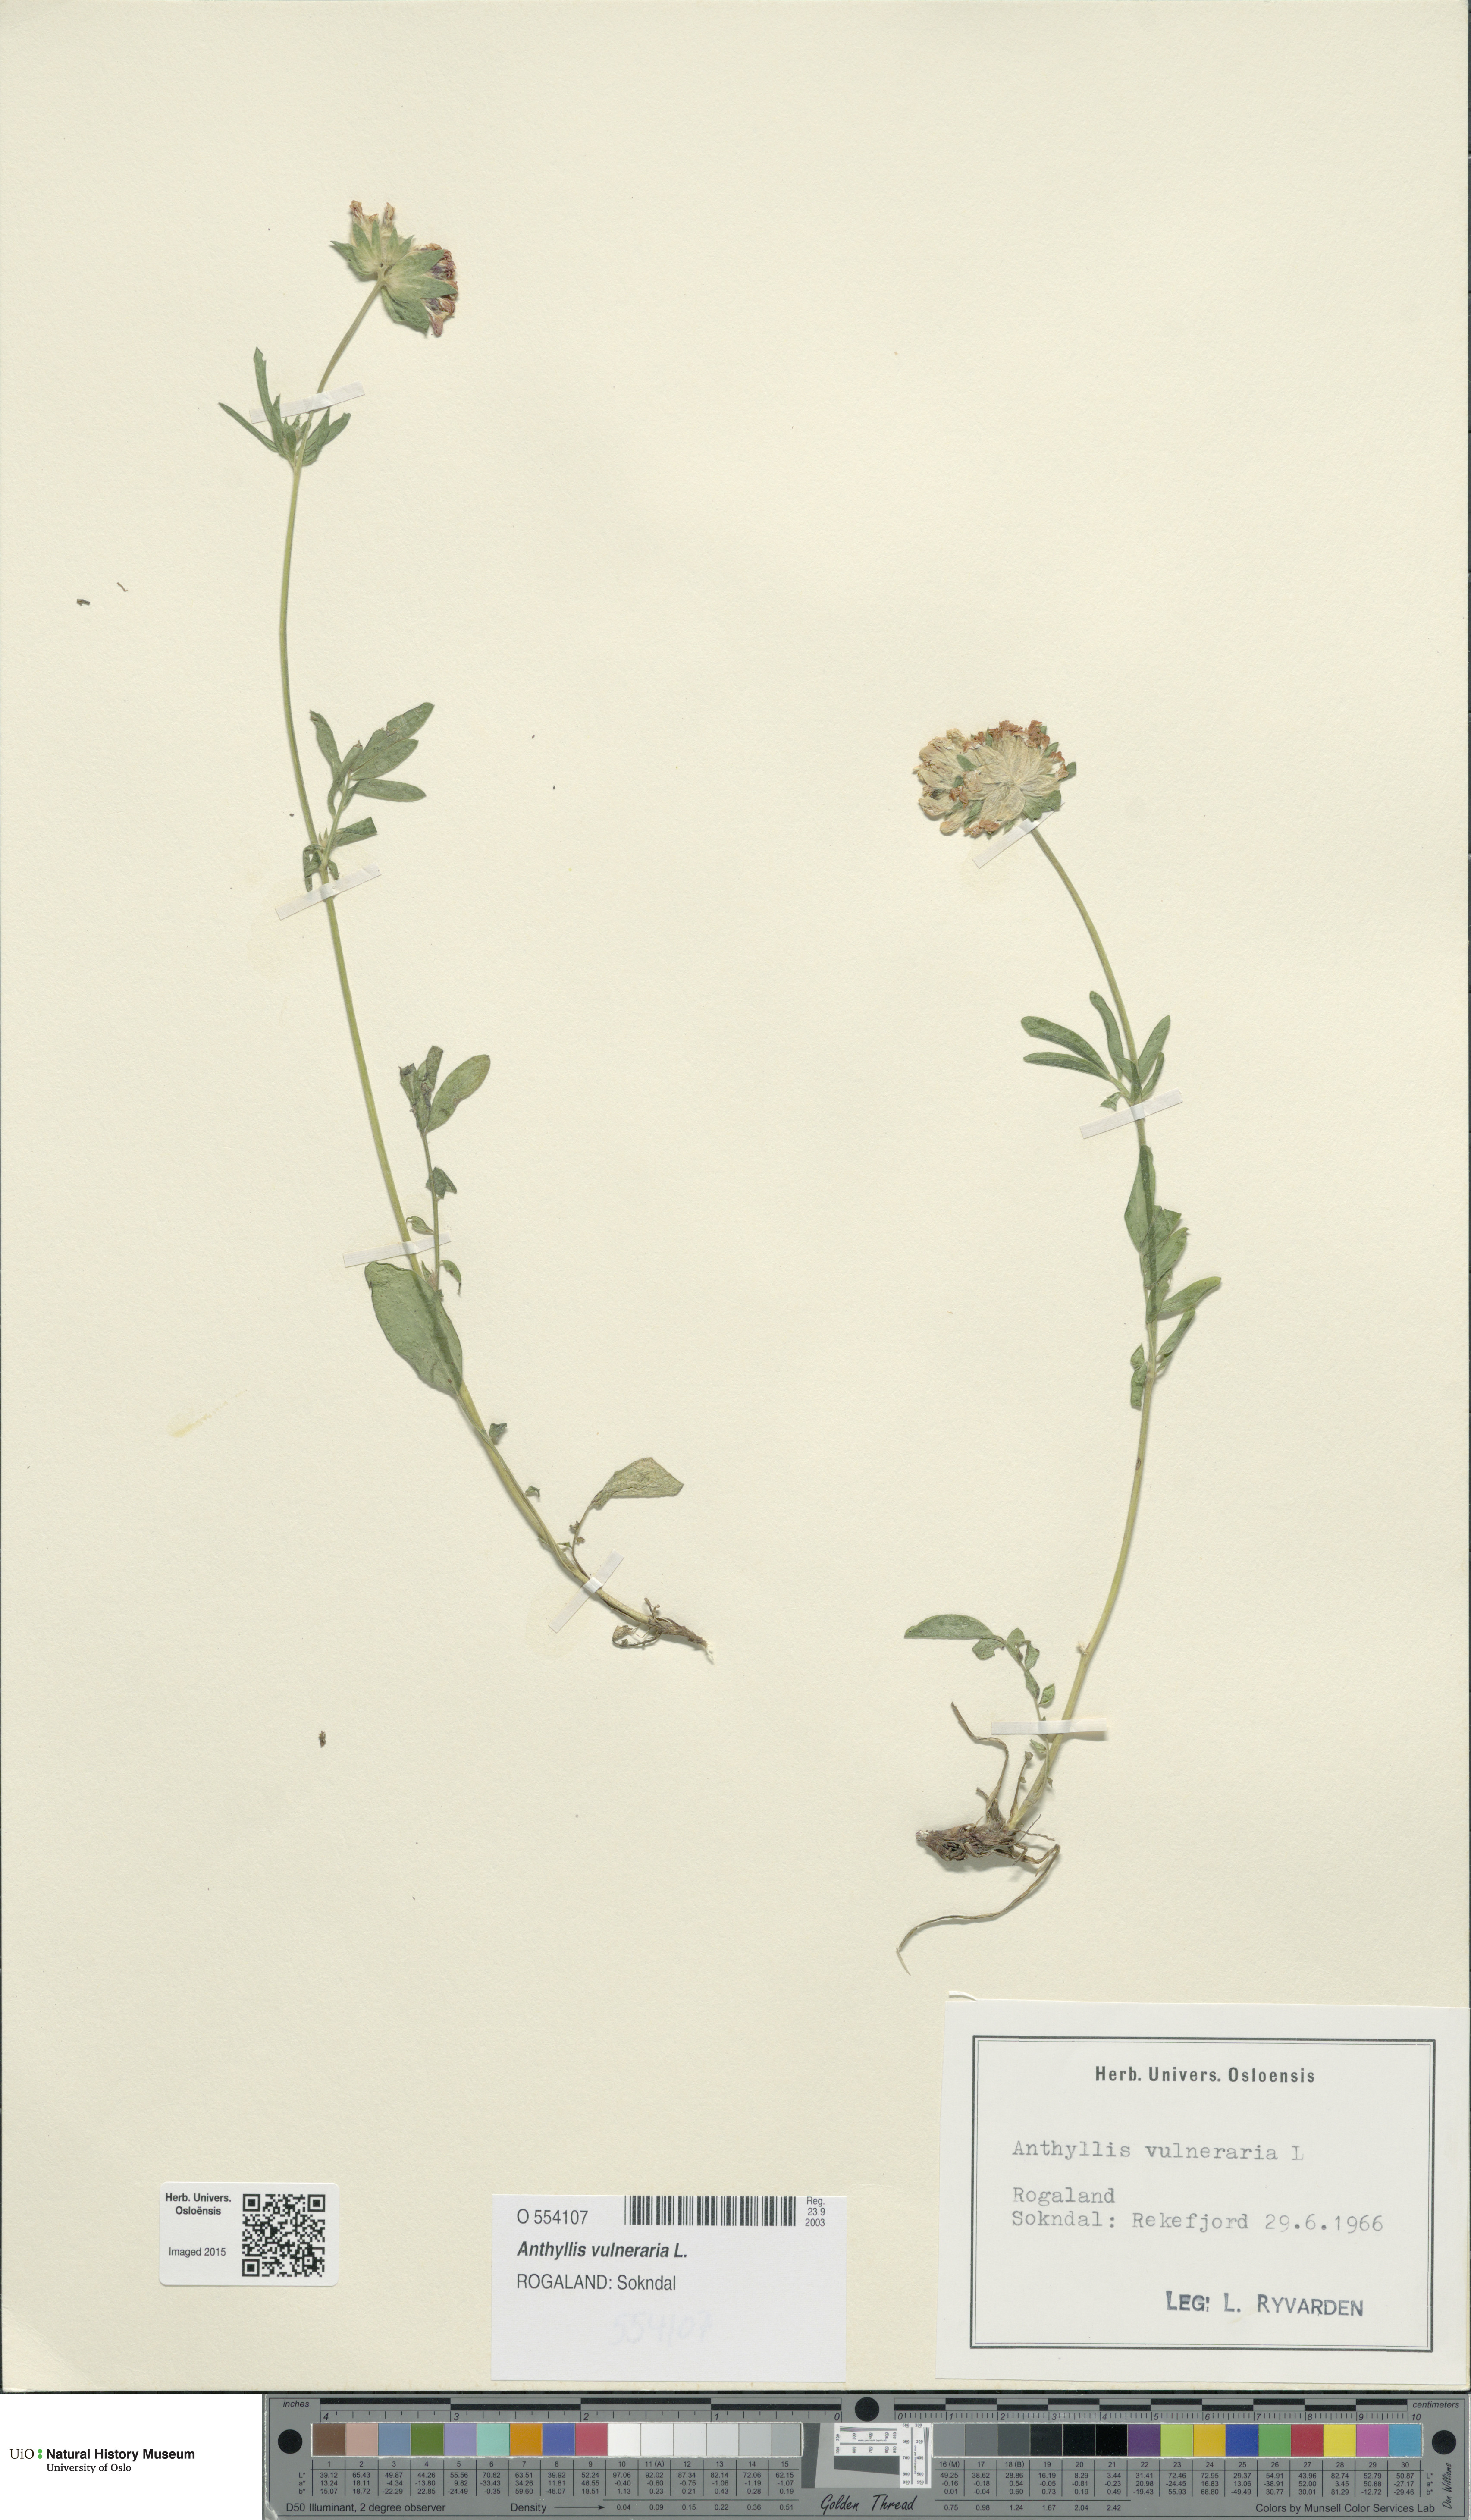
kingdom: Plantae
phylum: Tracheophyta
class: Magnoliopsida
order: Fabales
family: Fabaceae
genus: Anthyllis
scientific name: Anthyllis vulneraria
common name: Kidney vetch
